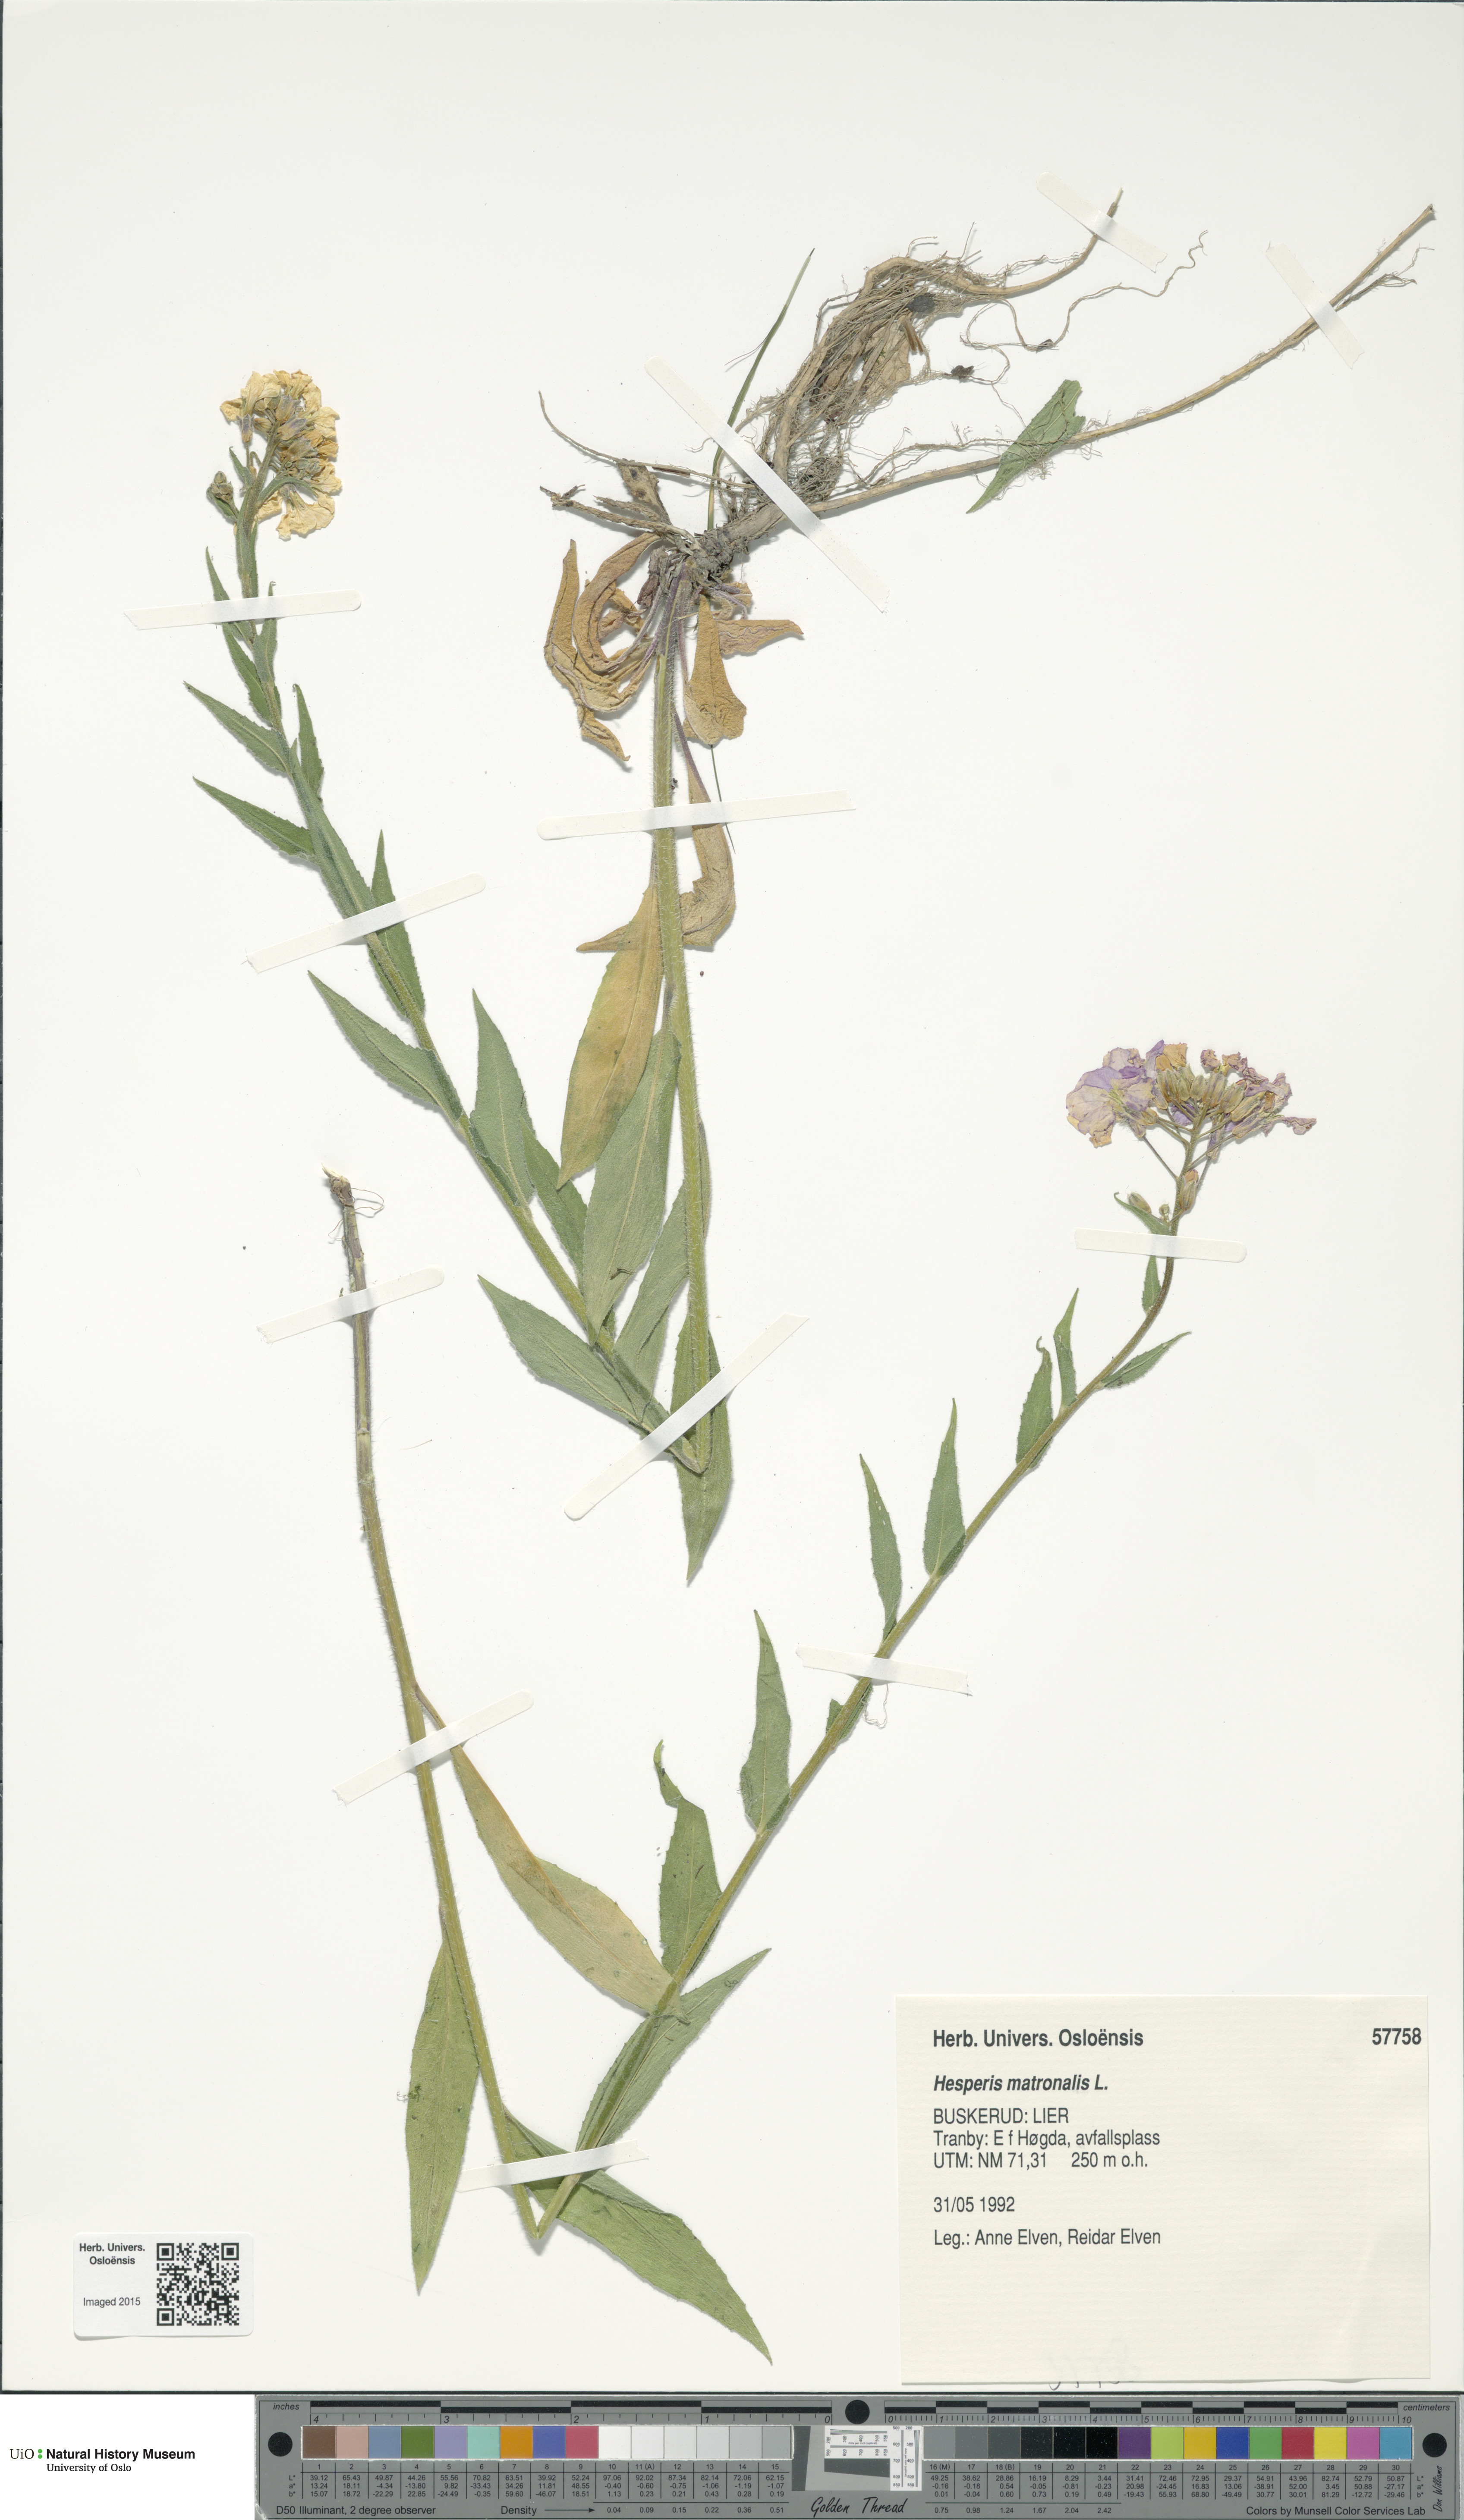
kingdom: Plantae
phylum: Tracheophyta
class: Magnoliopsida
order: Brassicales
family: Brassicaceae
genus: Hesperis
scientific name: Hesperis matronalis
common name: Dame's-violet
